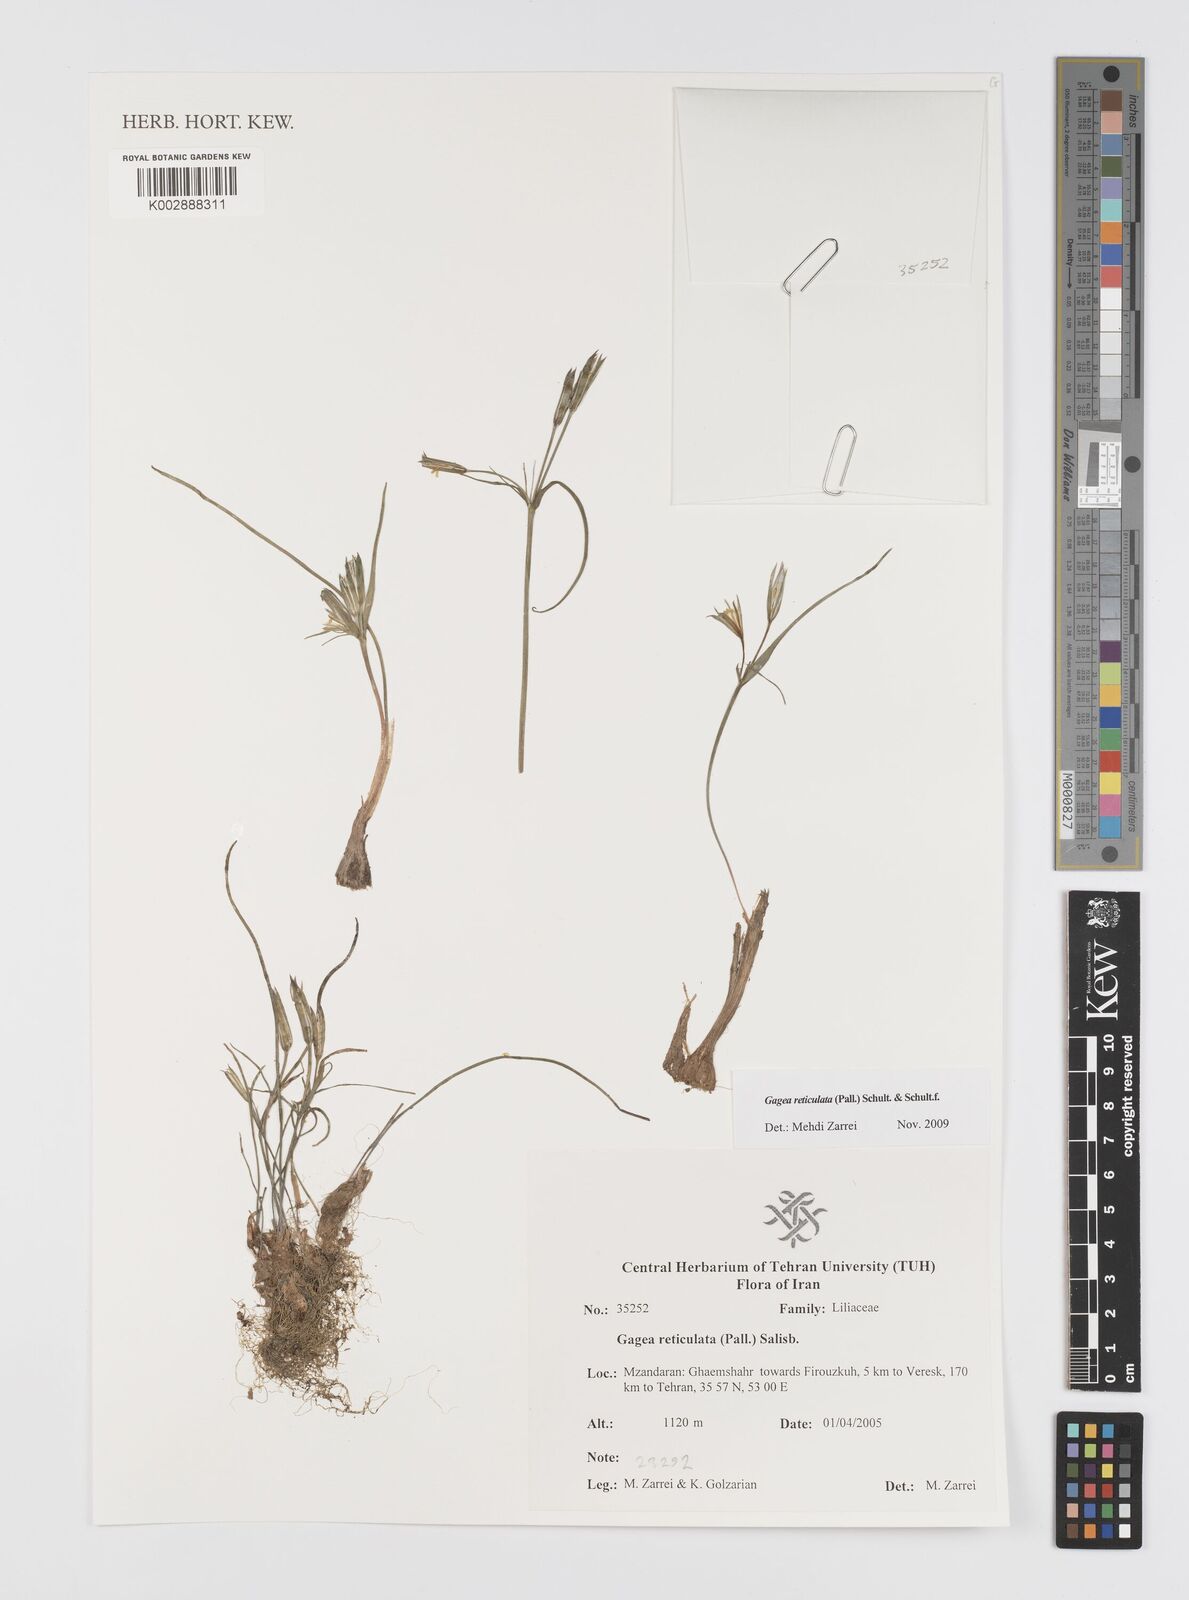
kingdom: Plantae
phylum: Tracheophyta
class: Liliopsida
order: Liliales
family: Liliaceae
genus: Gagea
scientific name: Gagea reticulata
